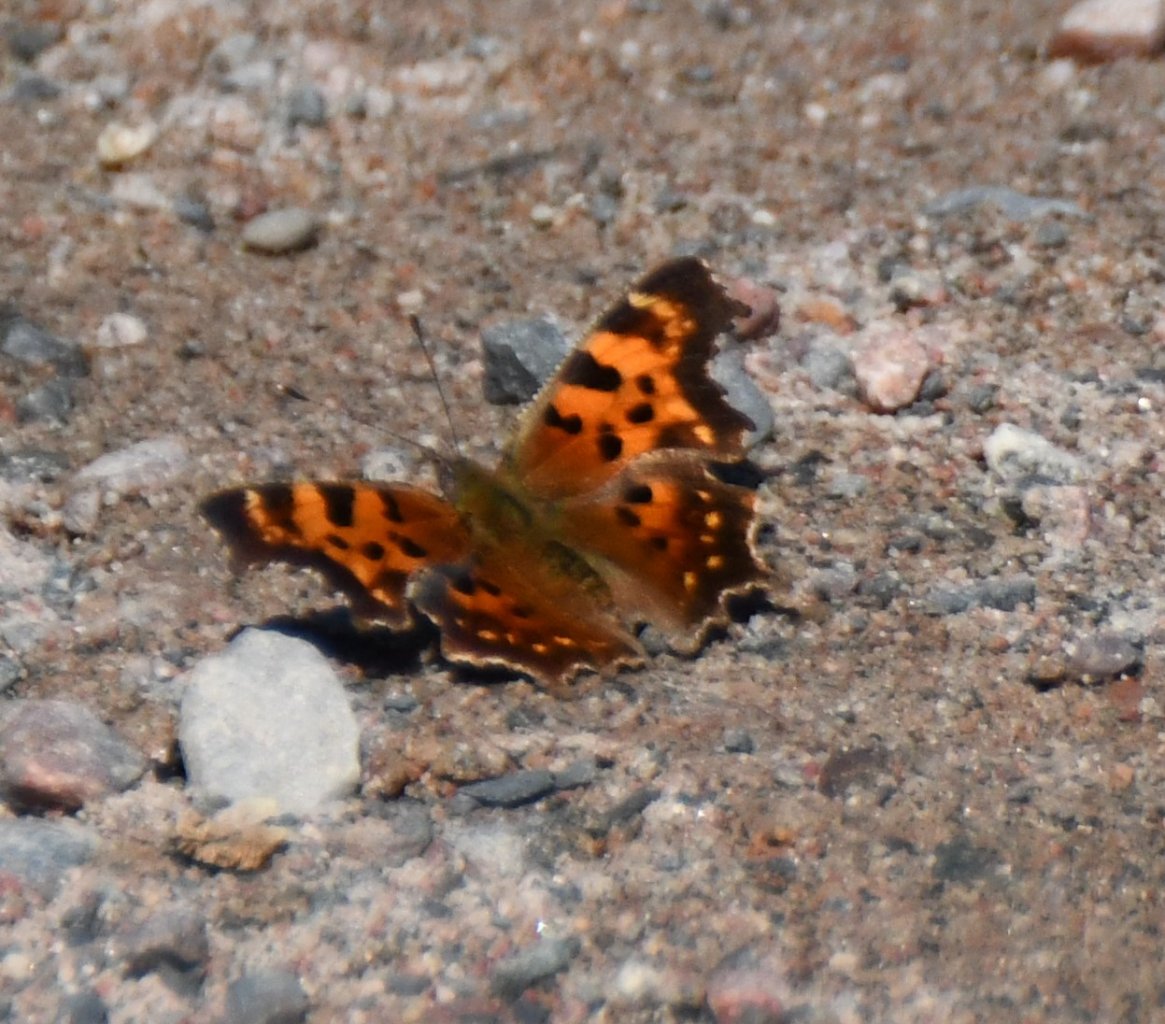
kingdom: Animalia
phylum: Arthropoda
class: Insecta
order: Lepidoptera
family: Nymphalidae
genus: Polygonia
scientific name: Polygonia faunus
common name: Green Comma
